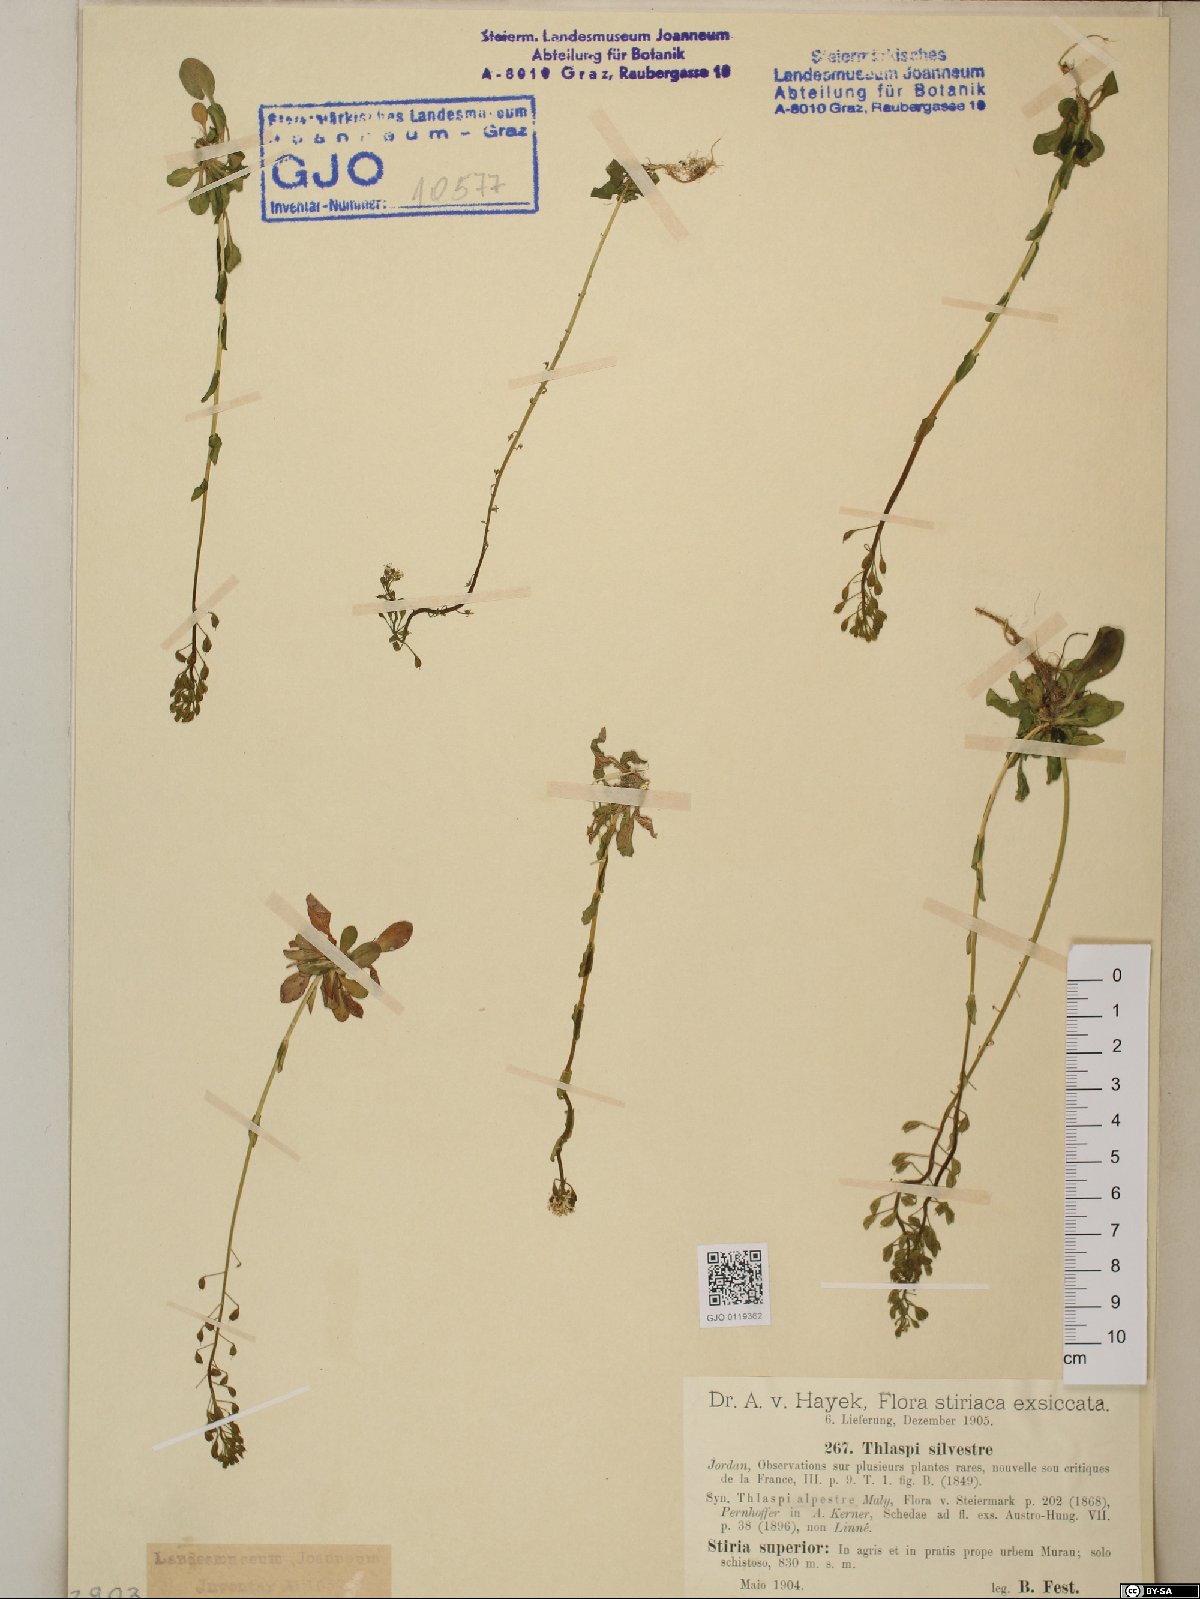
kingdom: Plantae
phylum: Tracheophyta
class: Magnoliopsida
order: Brassicales
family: Brassicaceae
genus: Noccaea
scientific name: Noccaea caerulescens
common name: Alpine pennycress
